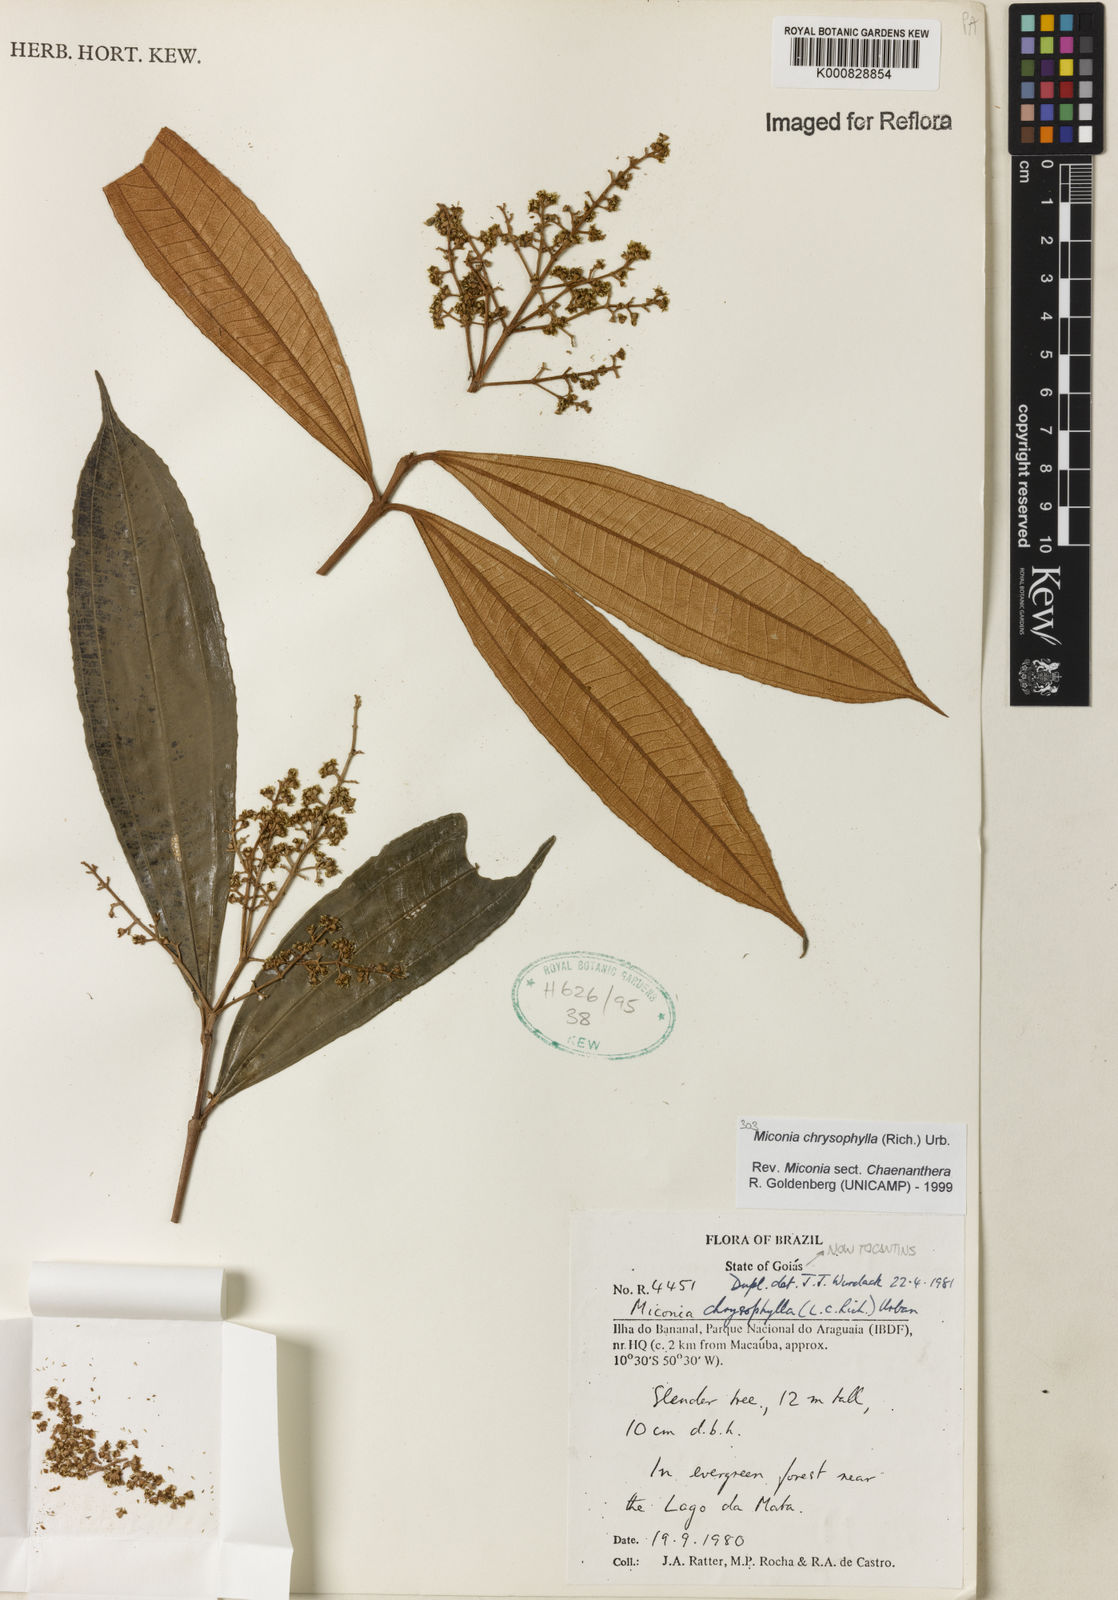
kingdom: Plantae
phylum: Tracheophyta
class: Magnoliopsida
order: Myrtales
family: Melastomataceae
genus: Miconia
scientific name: Miconia chrysophylla
